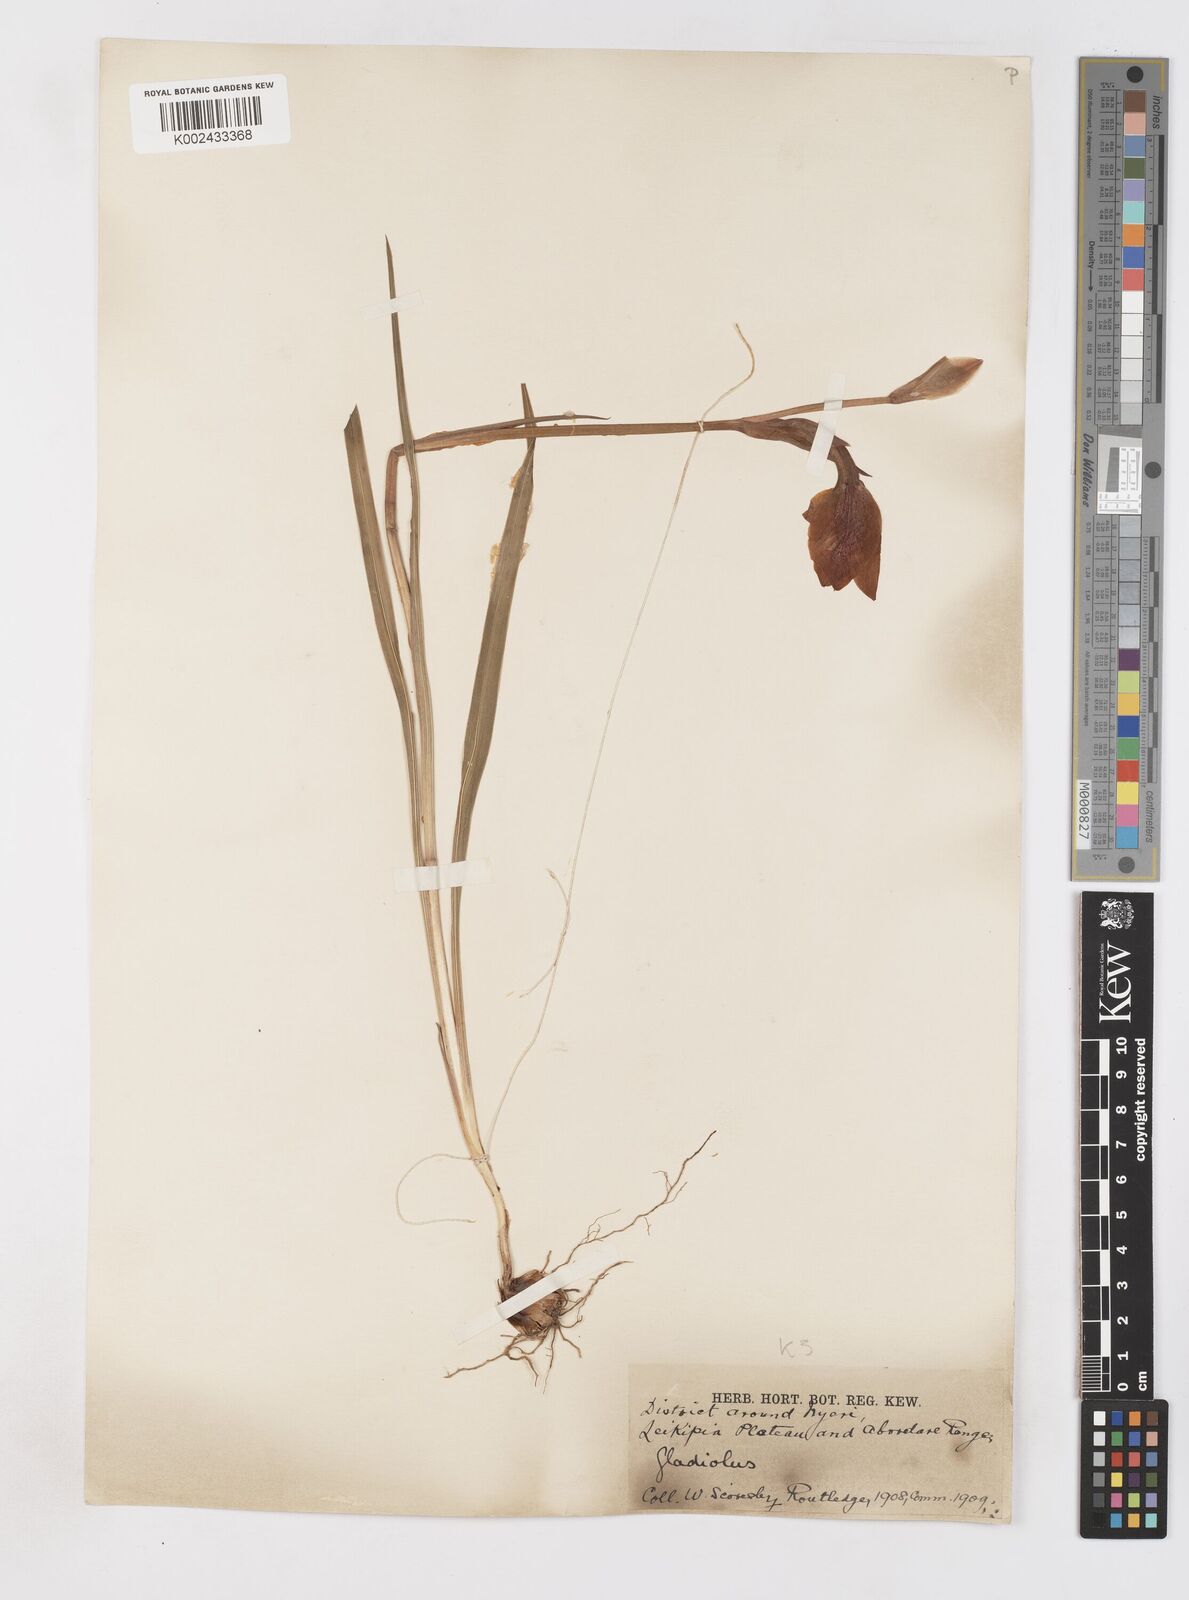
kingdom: Plantae
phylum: Tracheophyta
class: Liliopsida
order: Asparagales
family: Iridaceae
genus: Gladiolus
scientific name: Gladiolus dalenii
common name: Cornflag
